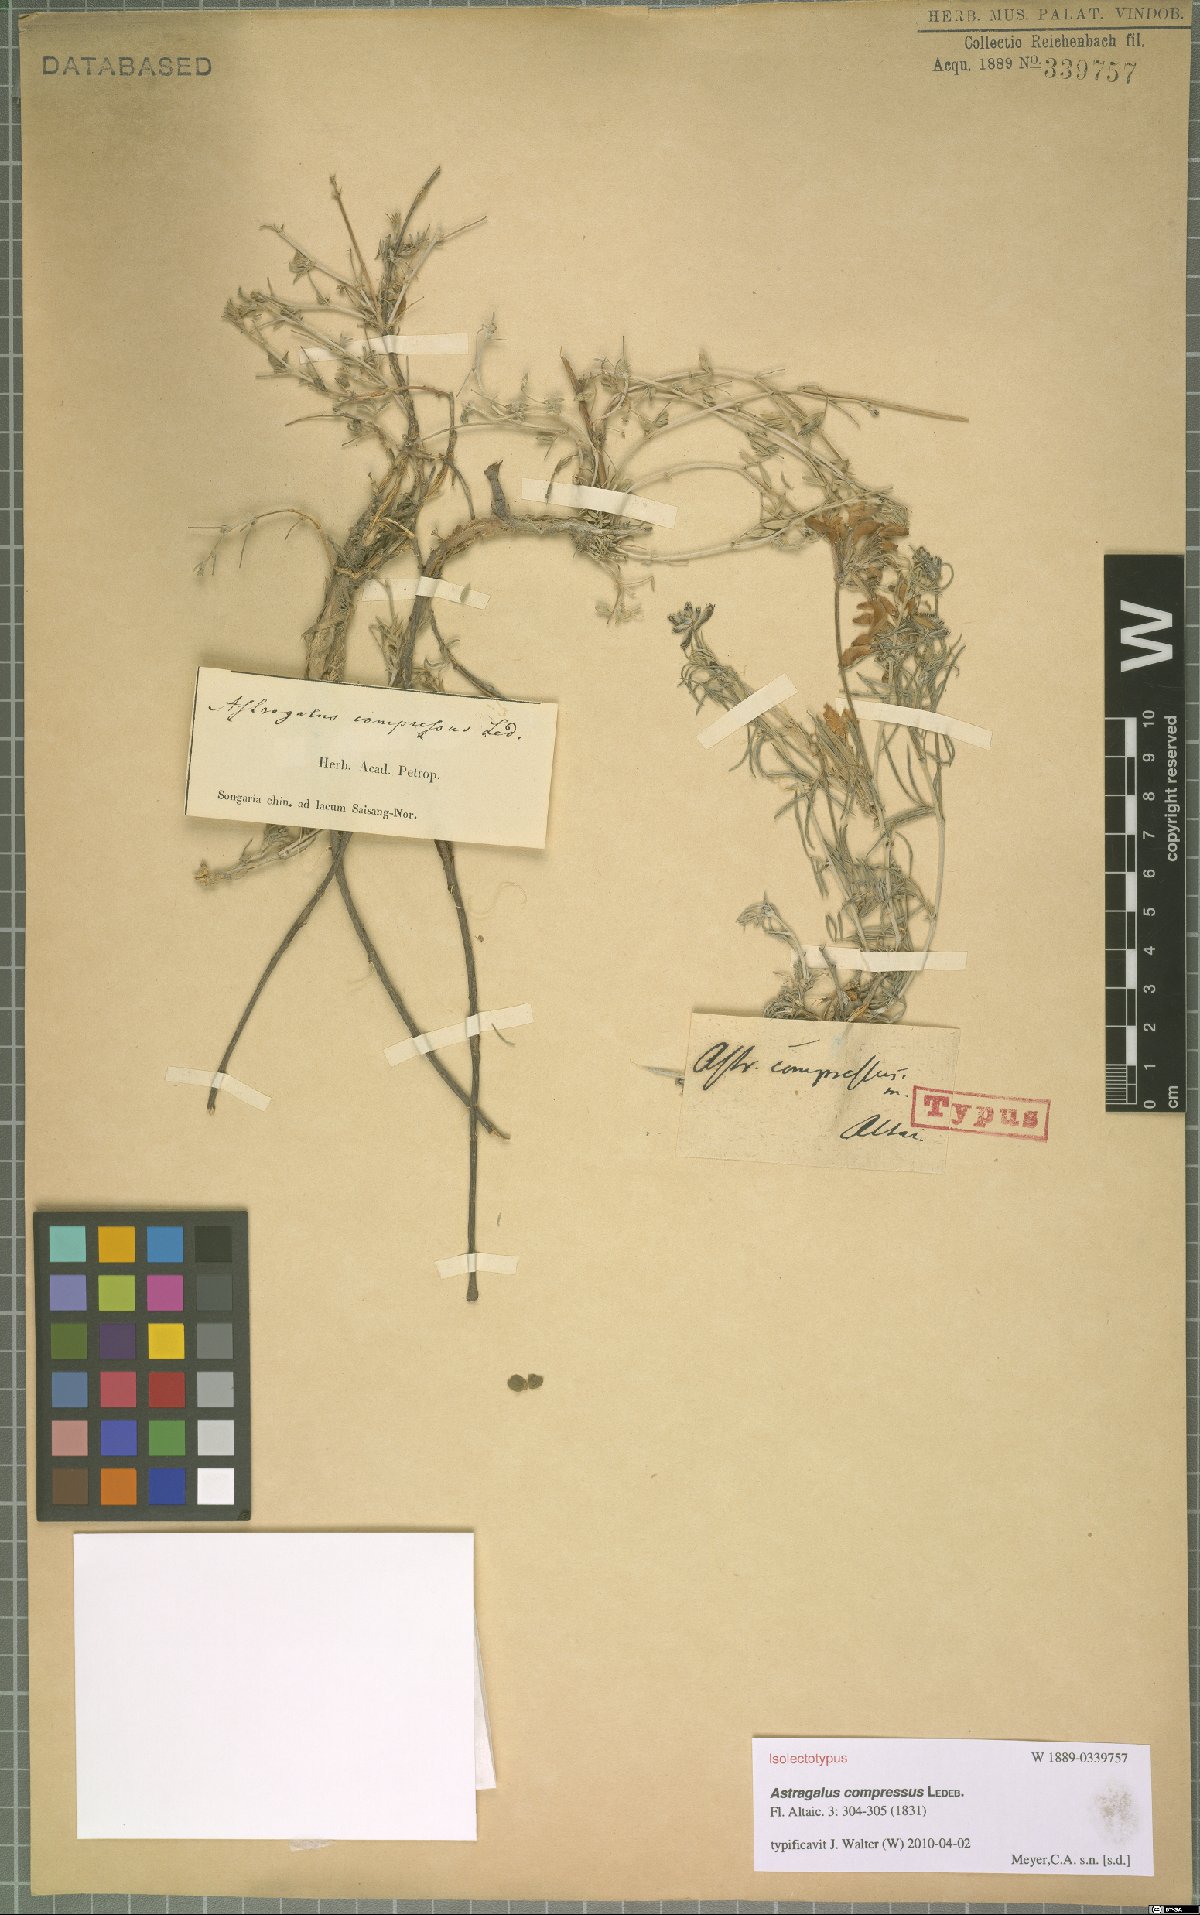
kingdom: Plantae
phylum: Tracheophyta
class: Magnoliopsida
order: Fabales
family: Fabaceae
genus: Astragalus
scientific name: Astragalus compressus
